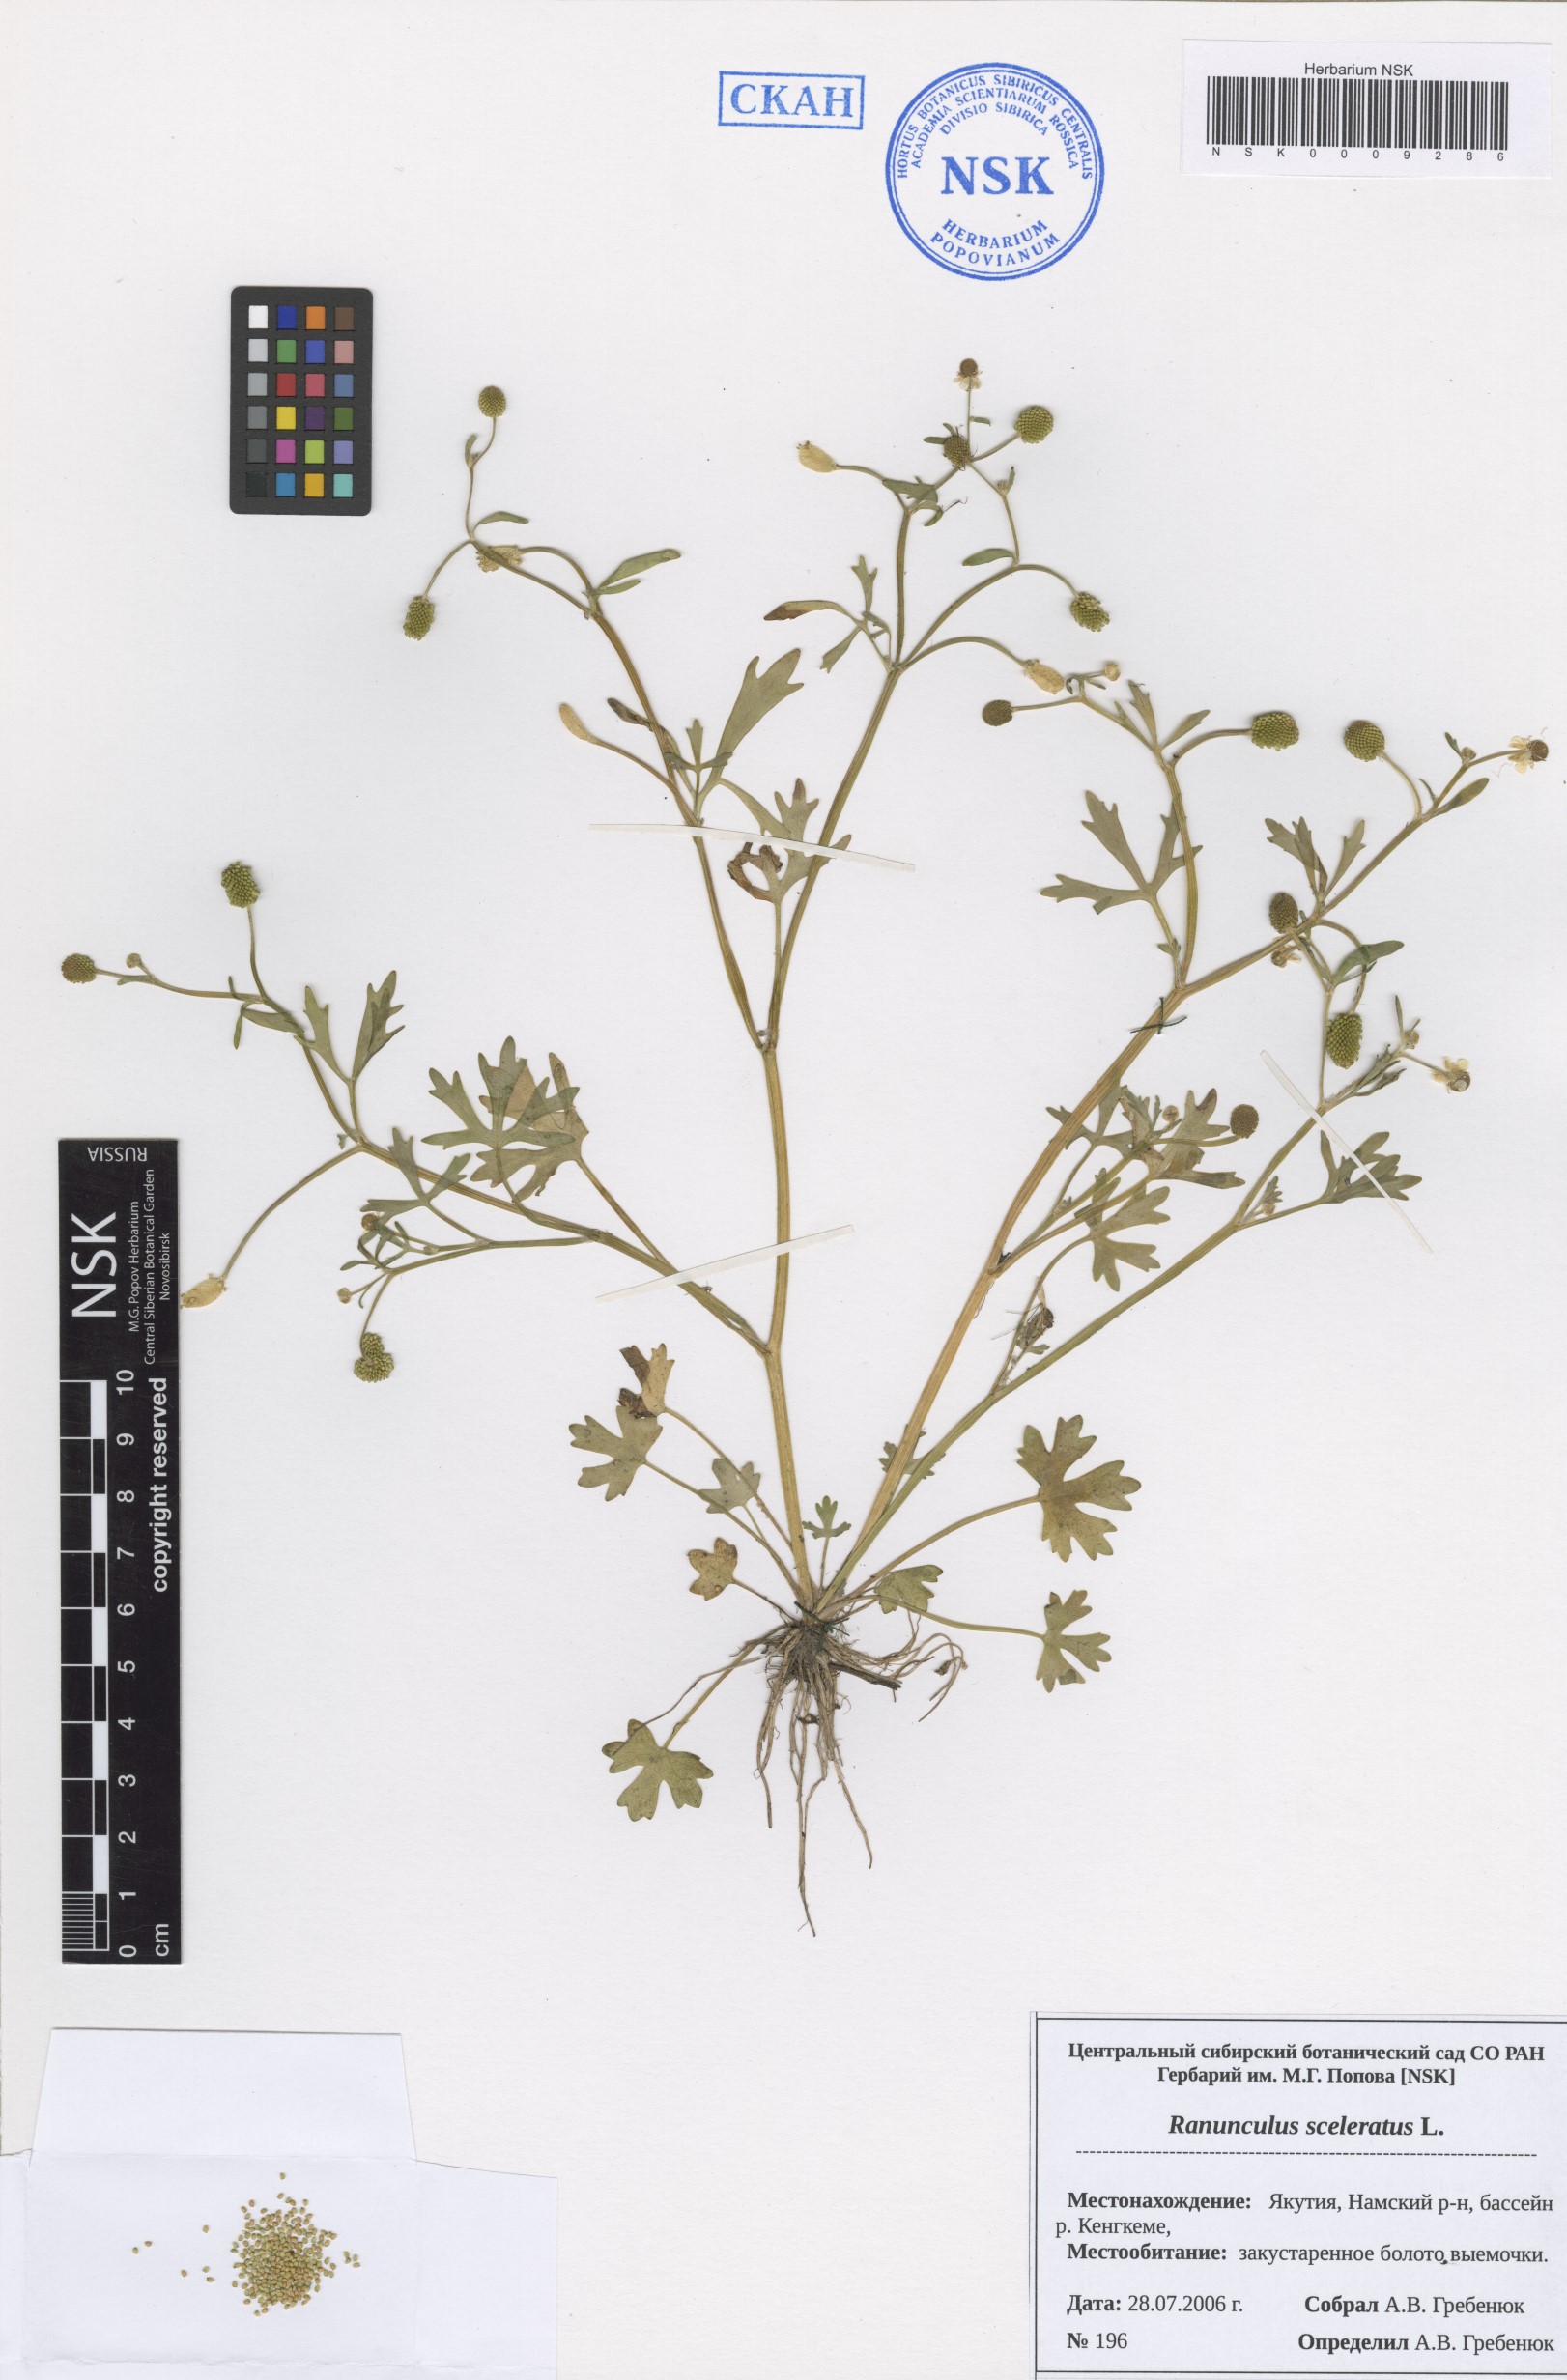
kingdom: Plantae
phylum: Tracheophyta
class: Magnoliopsida
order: Ranunculales
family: Ranunculaceae
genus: Ranunculus
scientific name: Ranunculus sceleratus
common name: Celery-leaved buttercup
